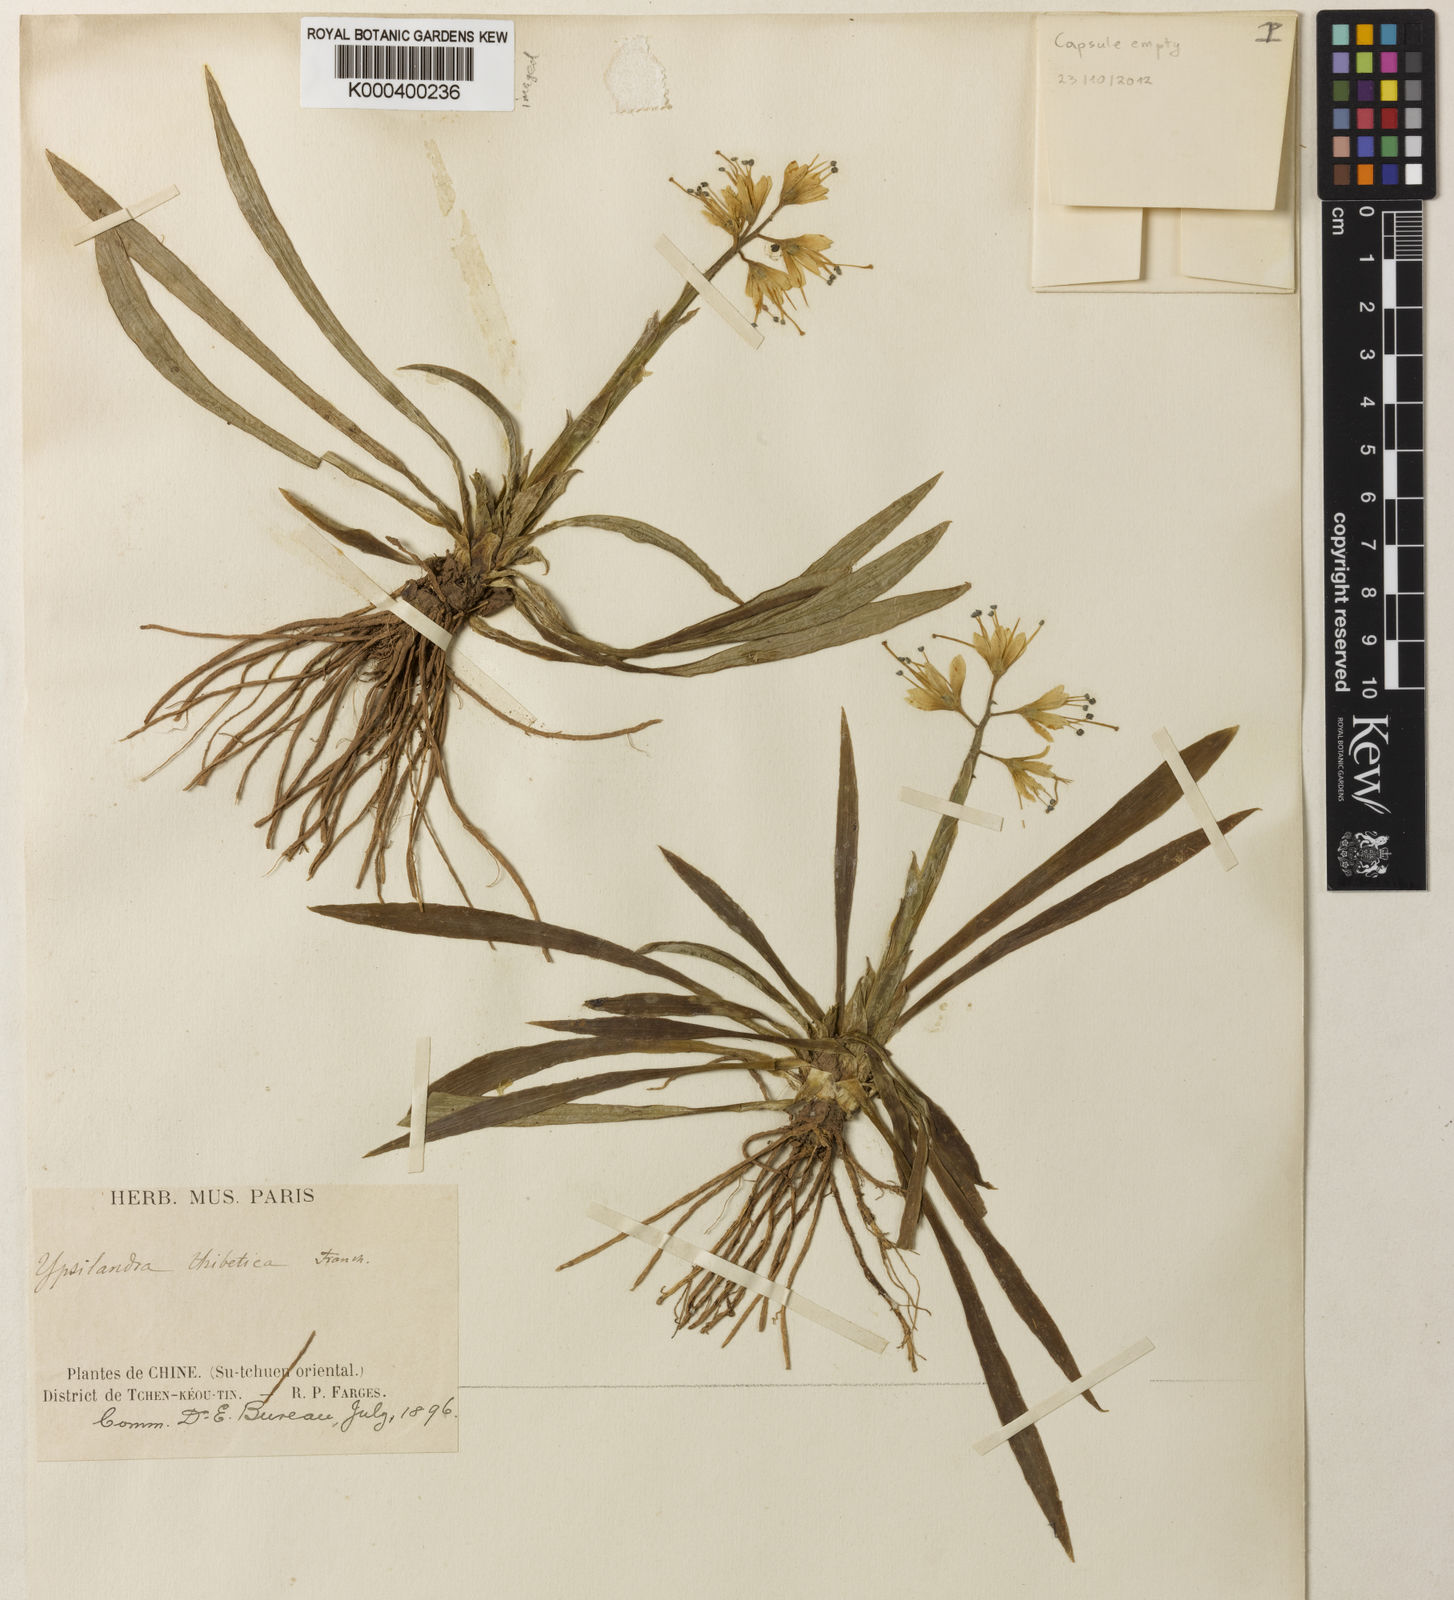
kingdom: Plantae
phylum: Tracheophyta
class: Liliopsida
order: Liliales
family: Melanthiaceae
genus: Helonias
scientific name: Helonias thibetica
